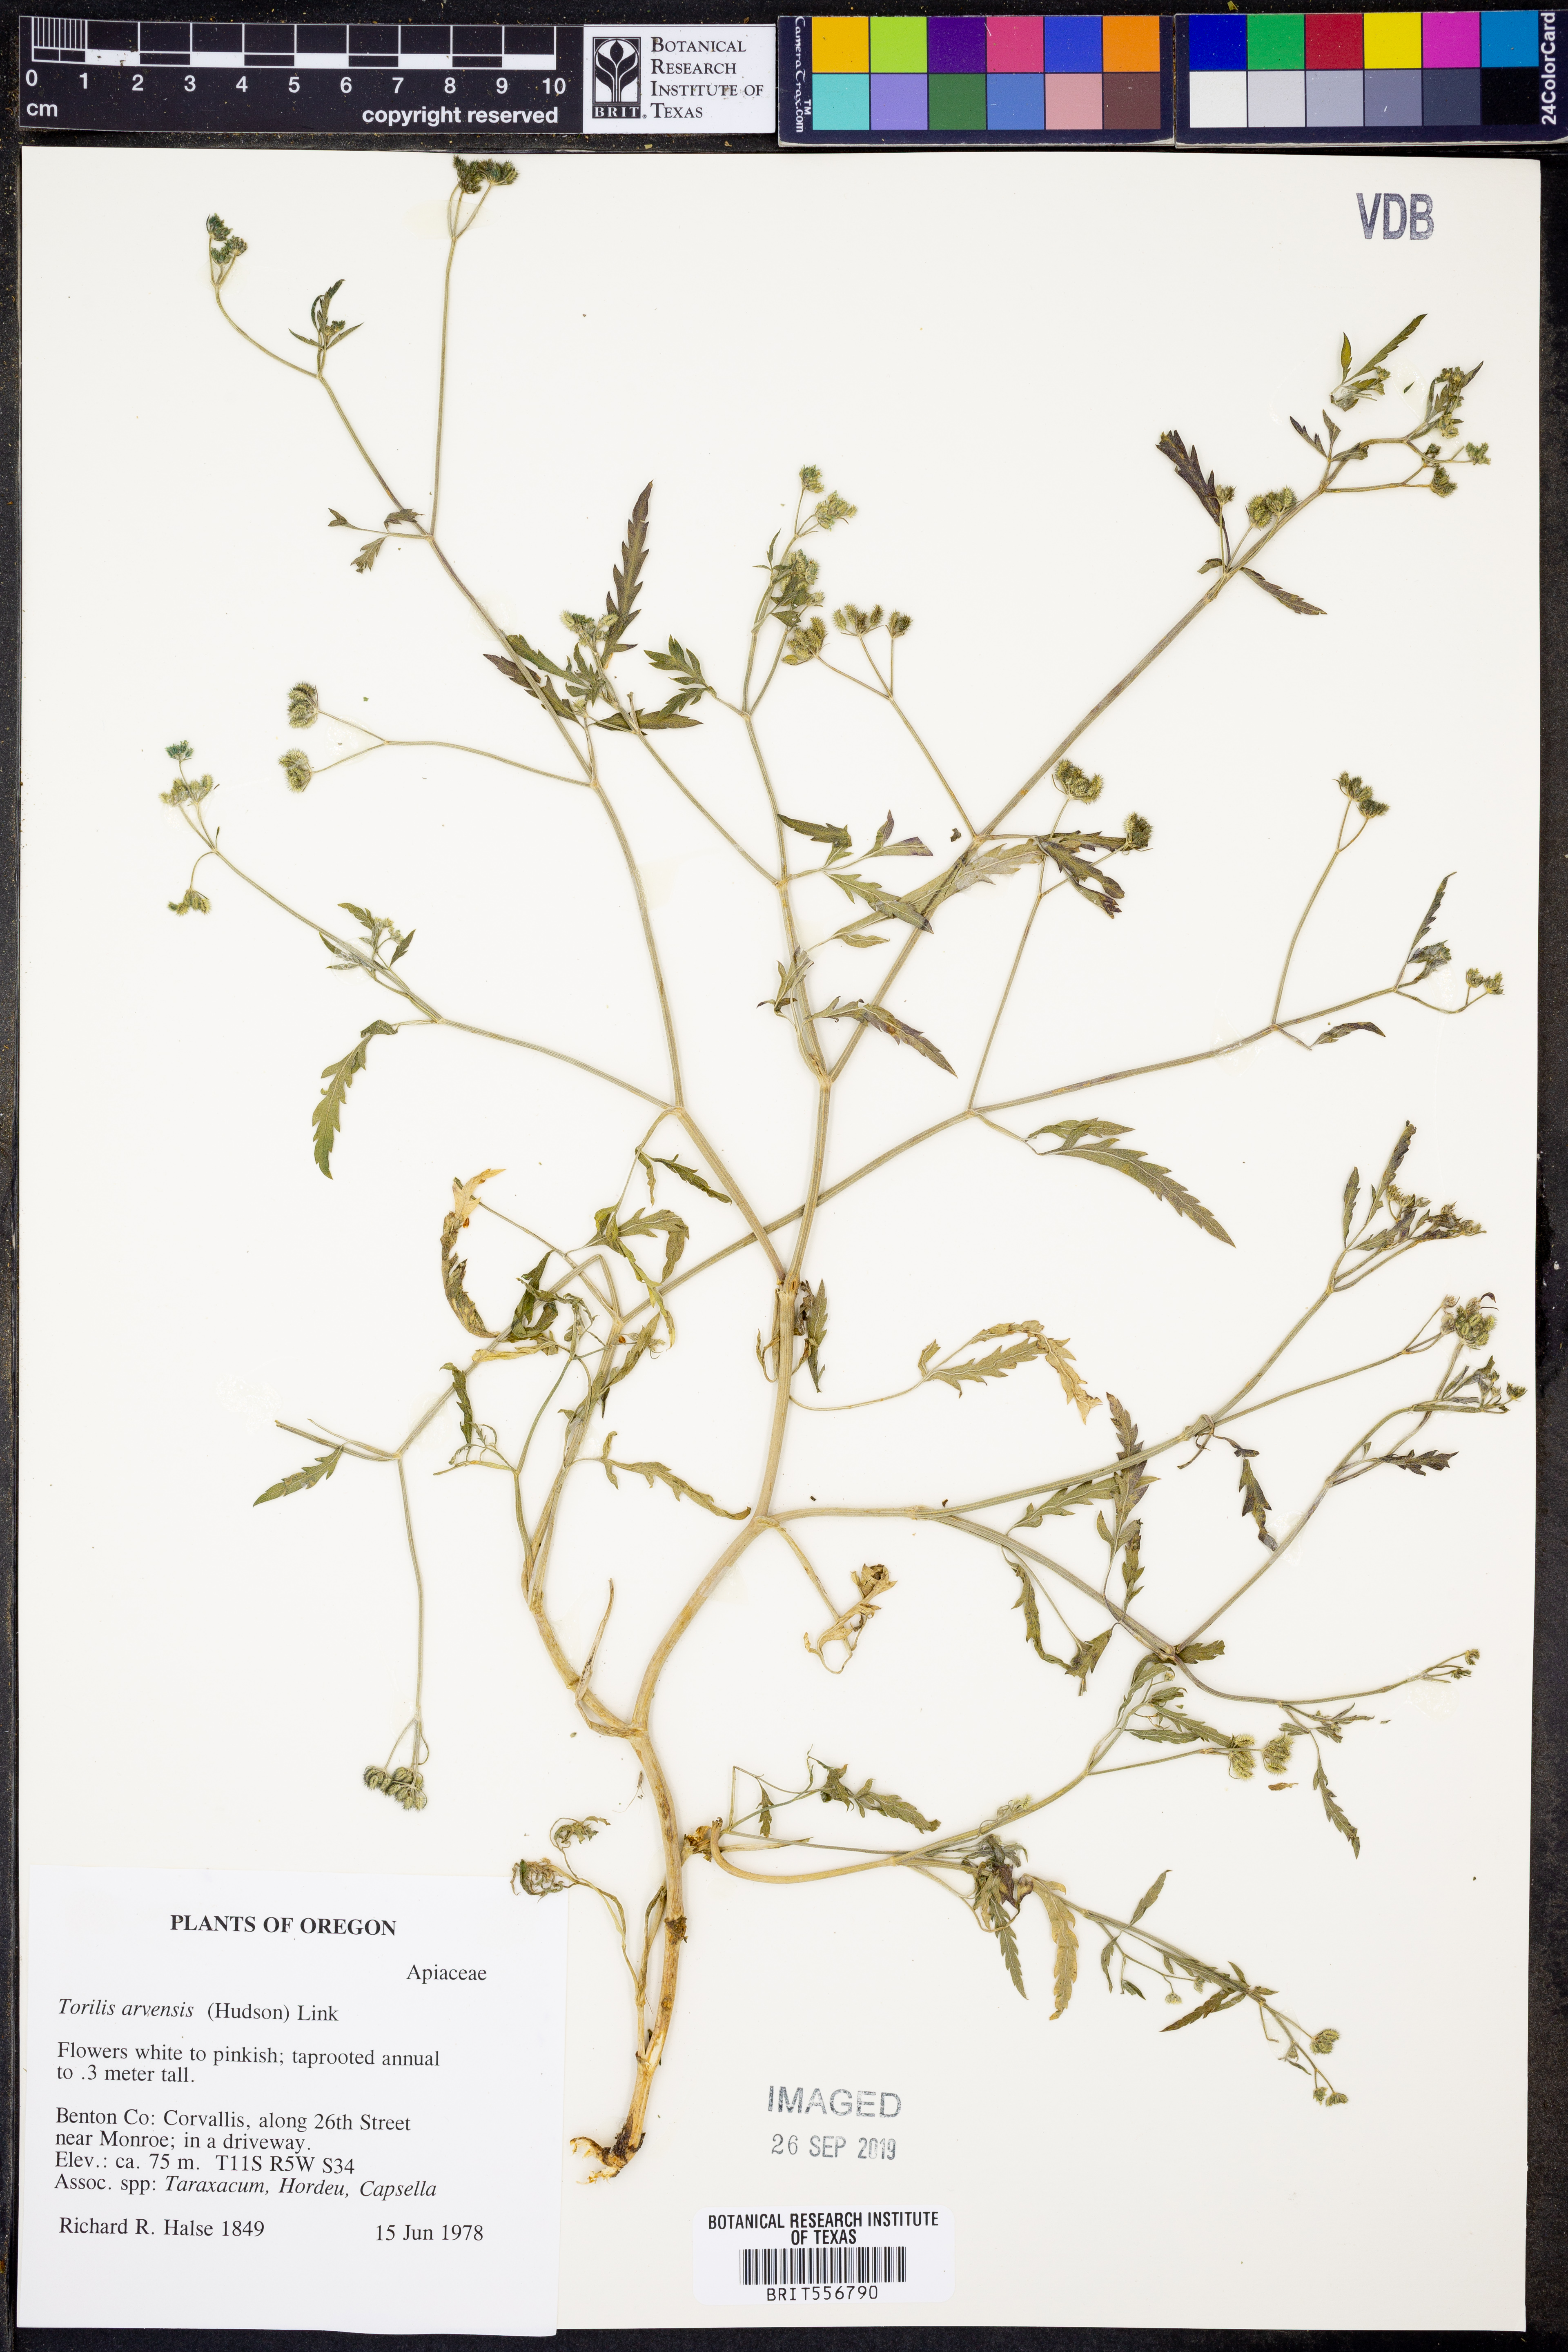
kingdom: Plantae
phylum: Tracheophyta
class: Magnoliopsida
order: Apiales
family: Apiaceae
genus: Torilis
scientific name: Torilis arvensis
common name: Spreading hedge-parsley
